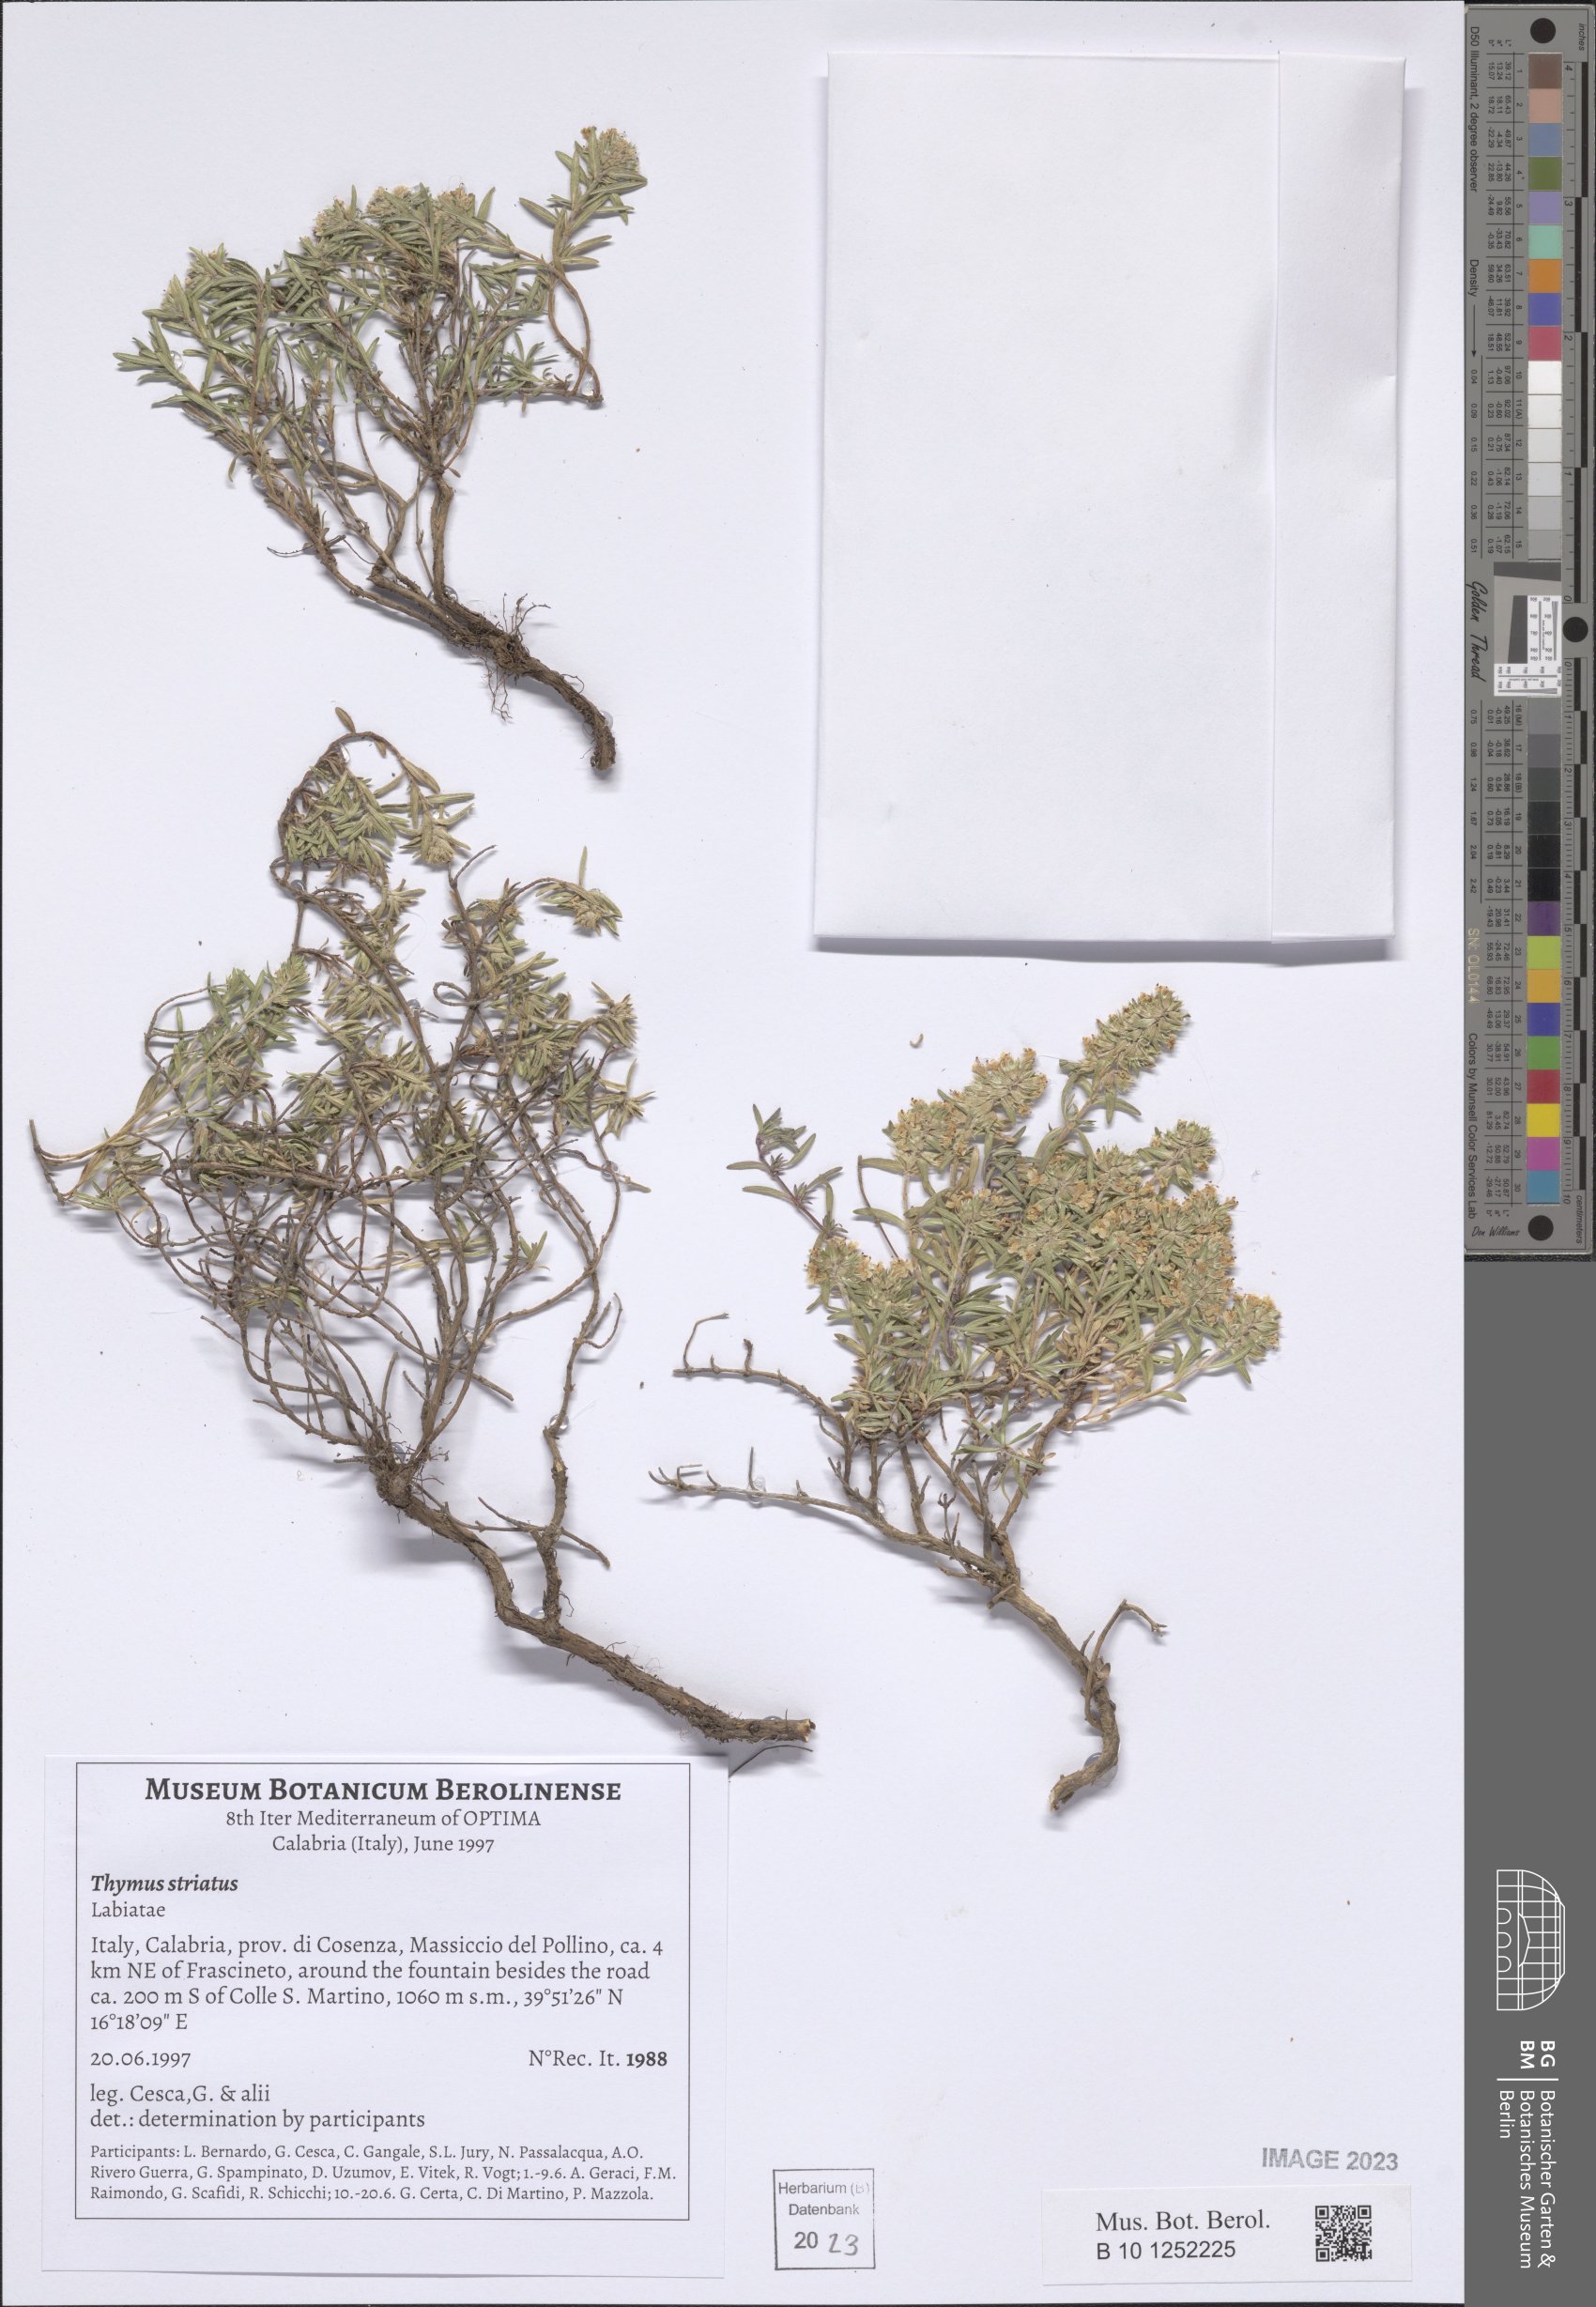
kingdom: Plantae
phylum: Tracheophyta
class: Magnoliopsida
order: Lamiales
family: Lamiaceae
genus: Thymus
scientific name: Thymus striatus
